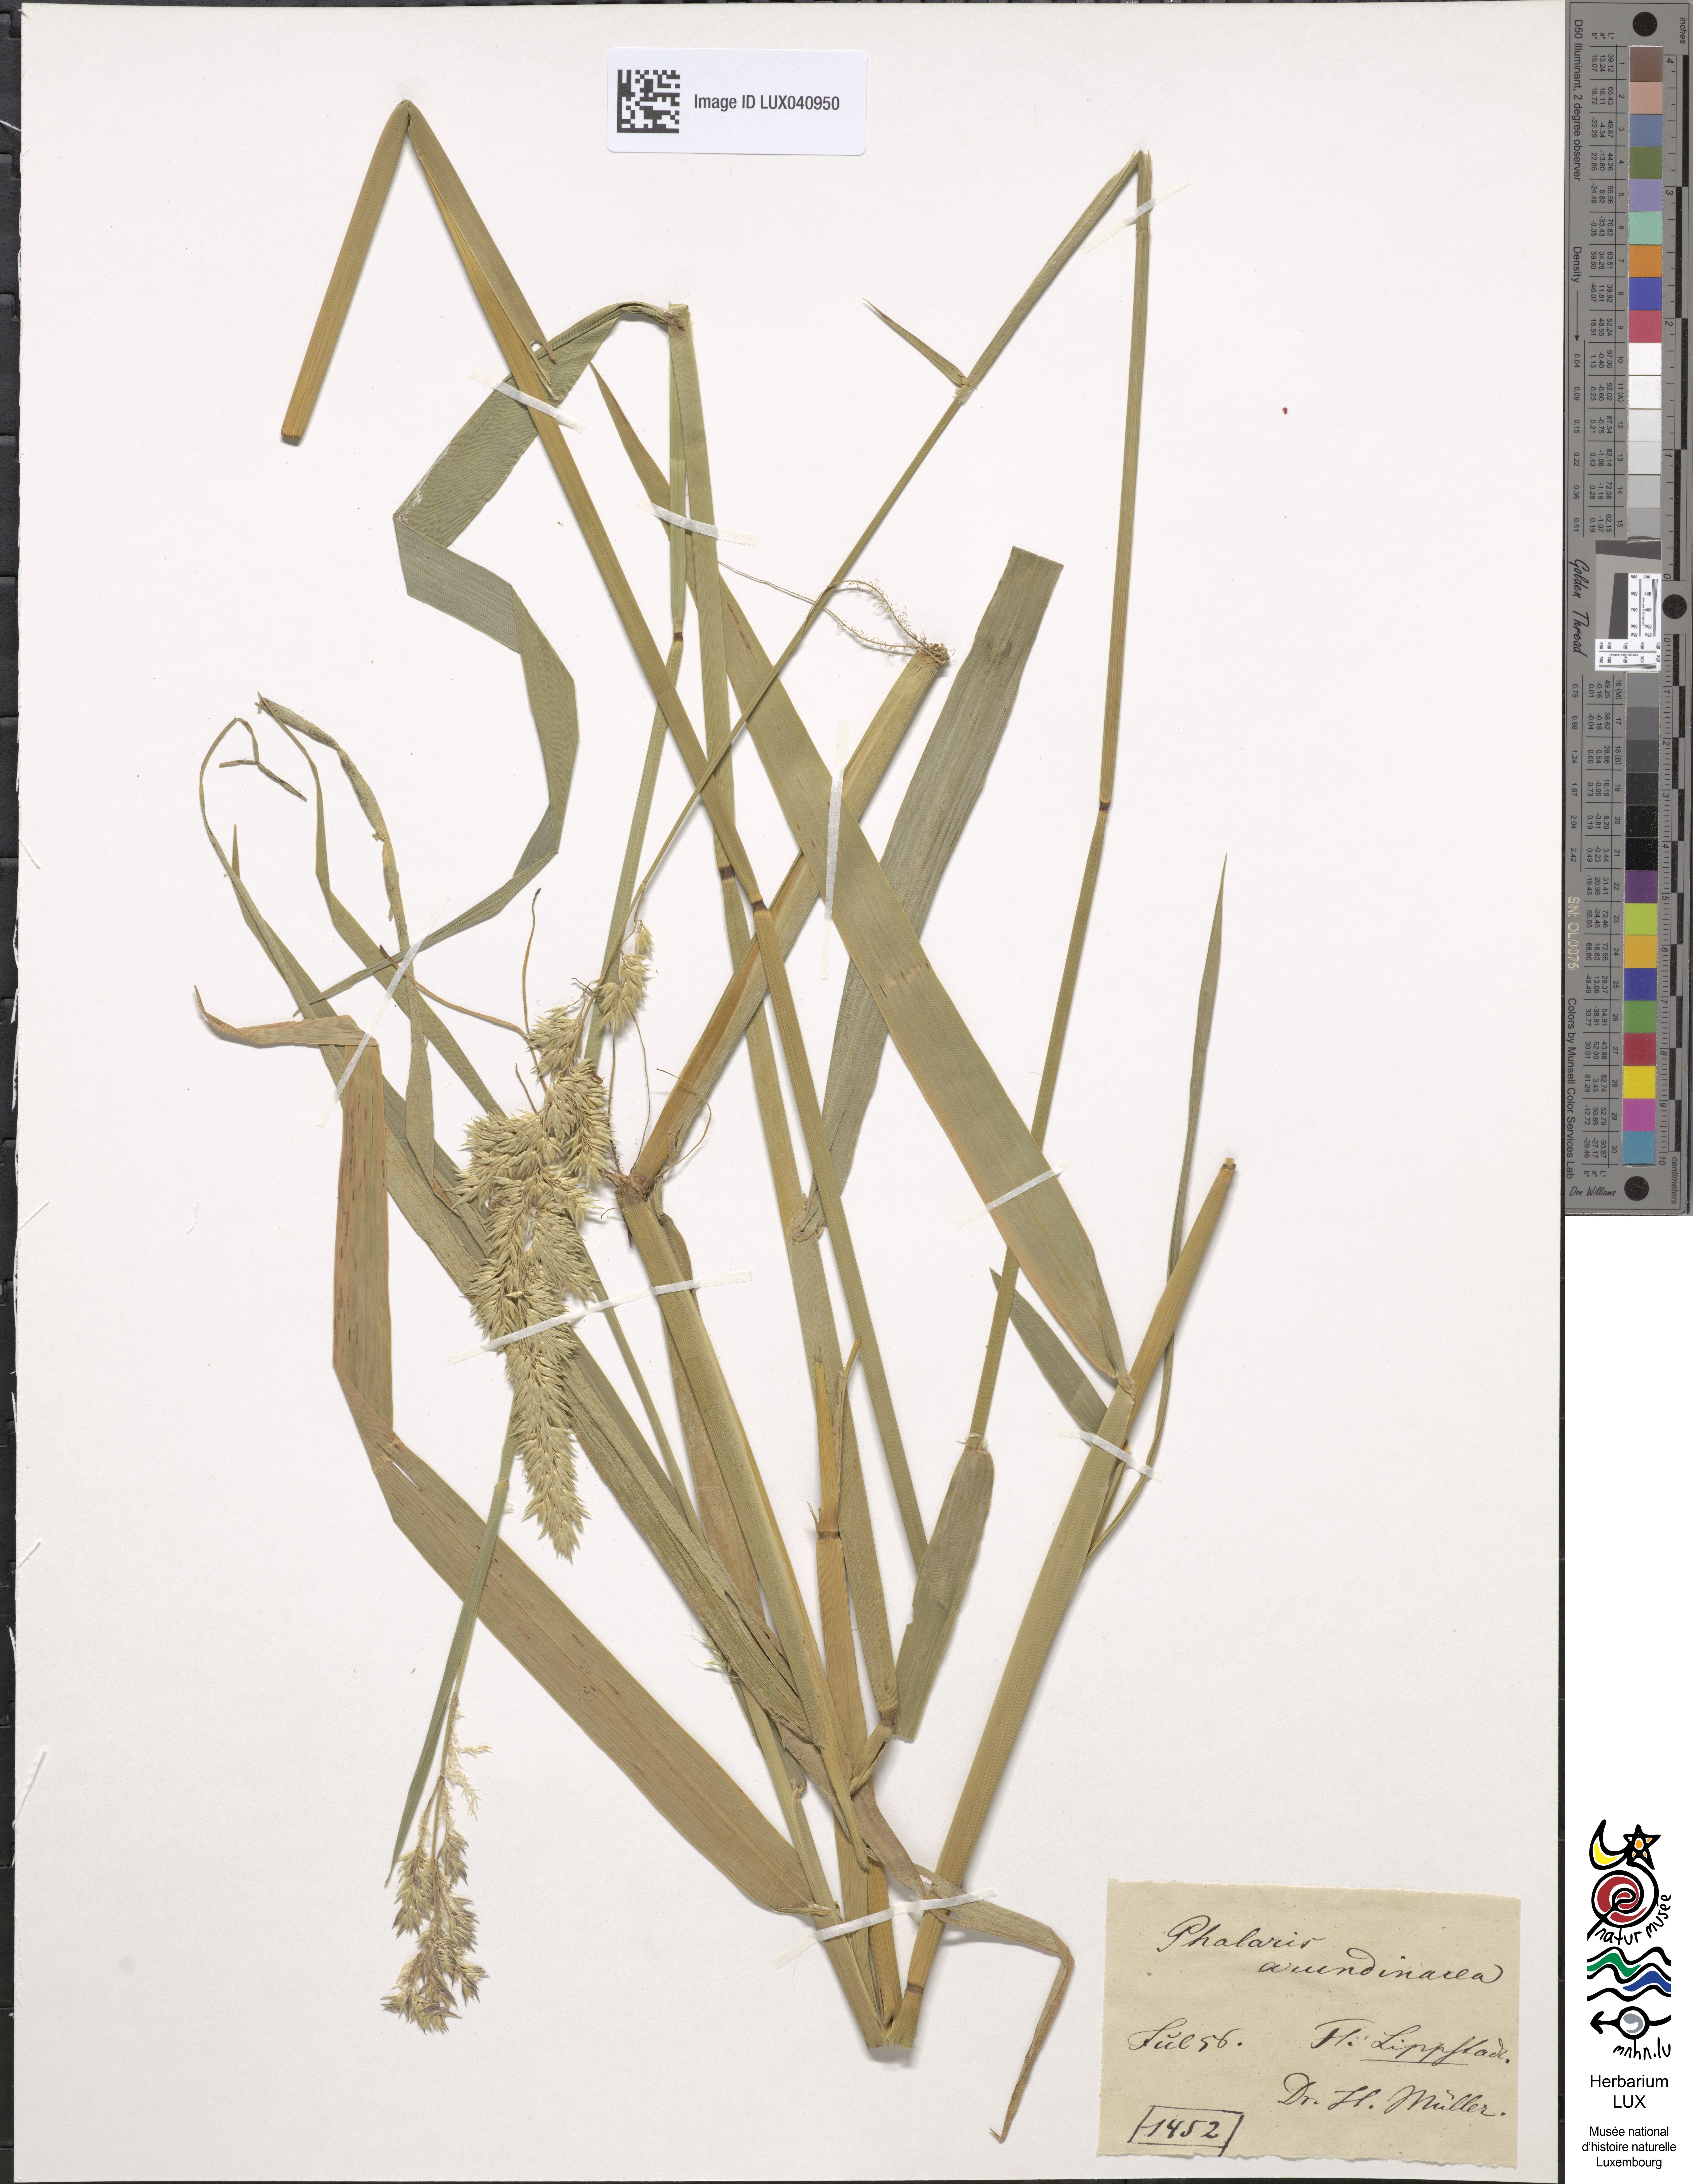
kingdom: Plantae
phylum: Tracheophyta
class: Liliopsida
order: Poales
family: Poaceae
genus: Phalaris
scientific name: Phalaris arundinacea
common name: Reed canary-grass
